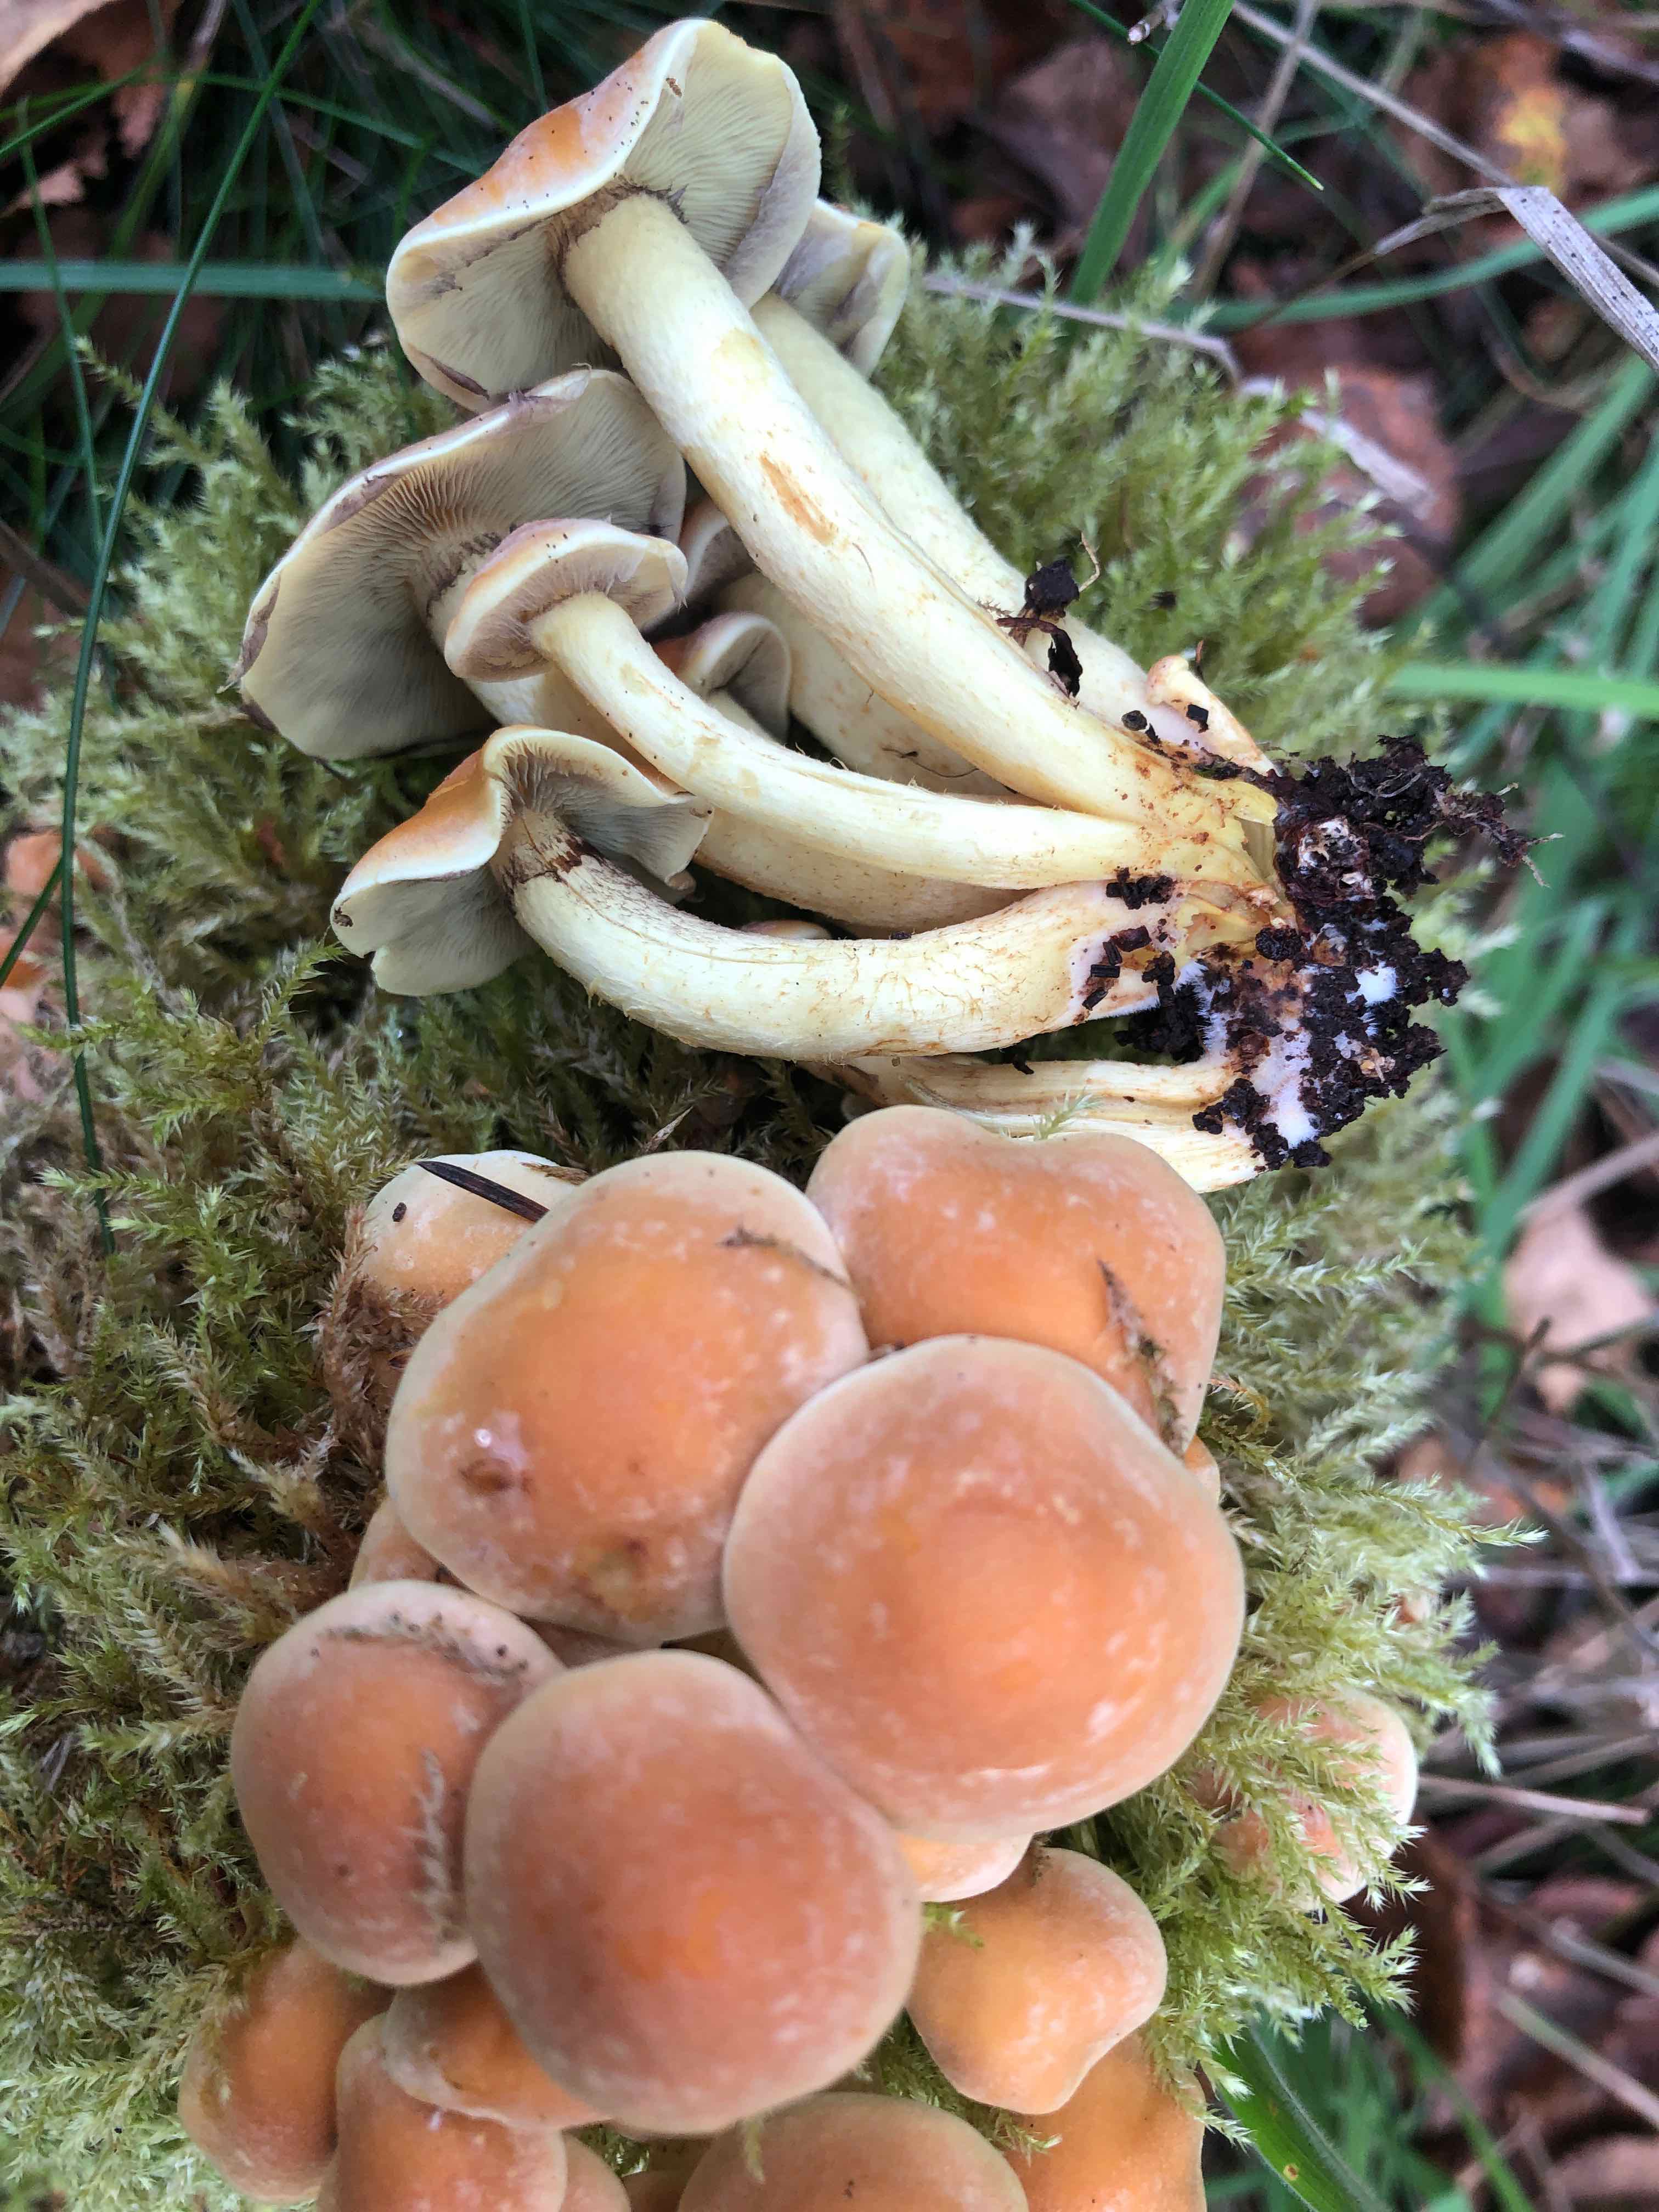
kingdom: Fungi
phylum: Basidiomycota
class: Agaricomycetes
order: Agaricales
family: Strophariaceae
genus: Hypholoma
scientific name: Hypholoma fasciculare
